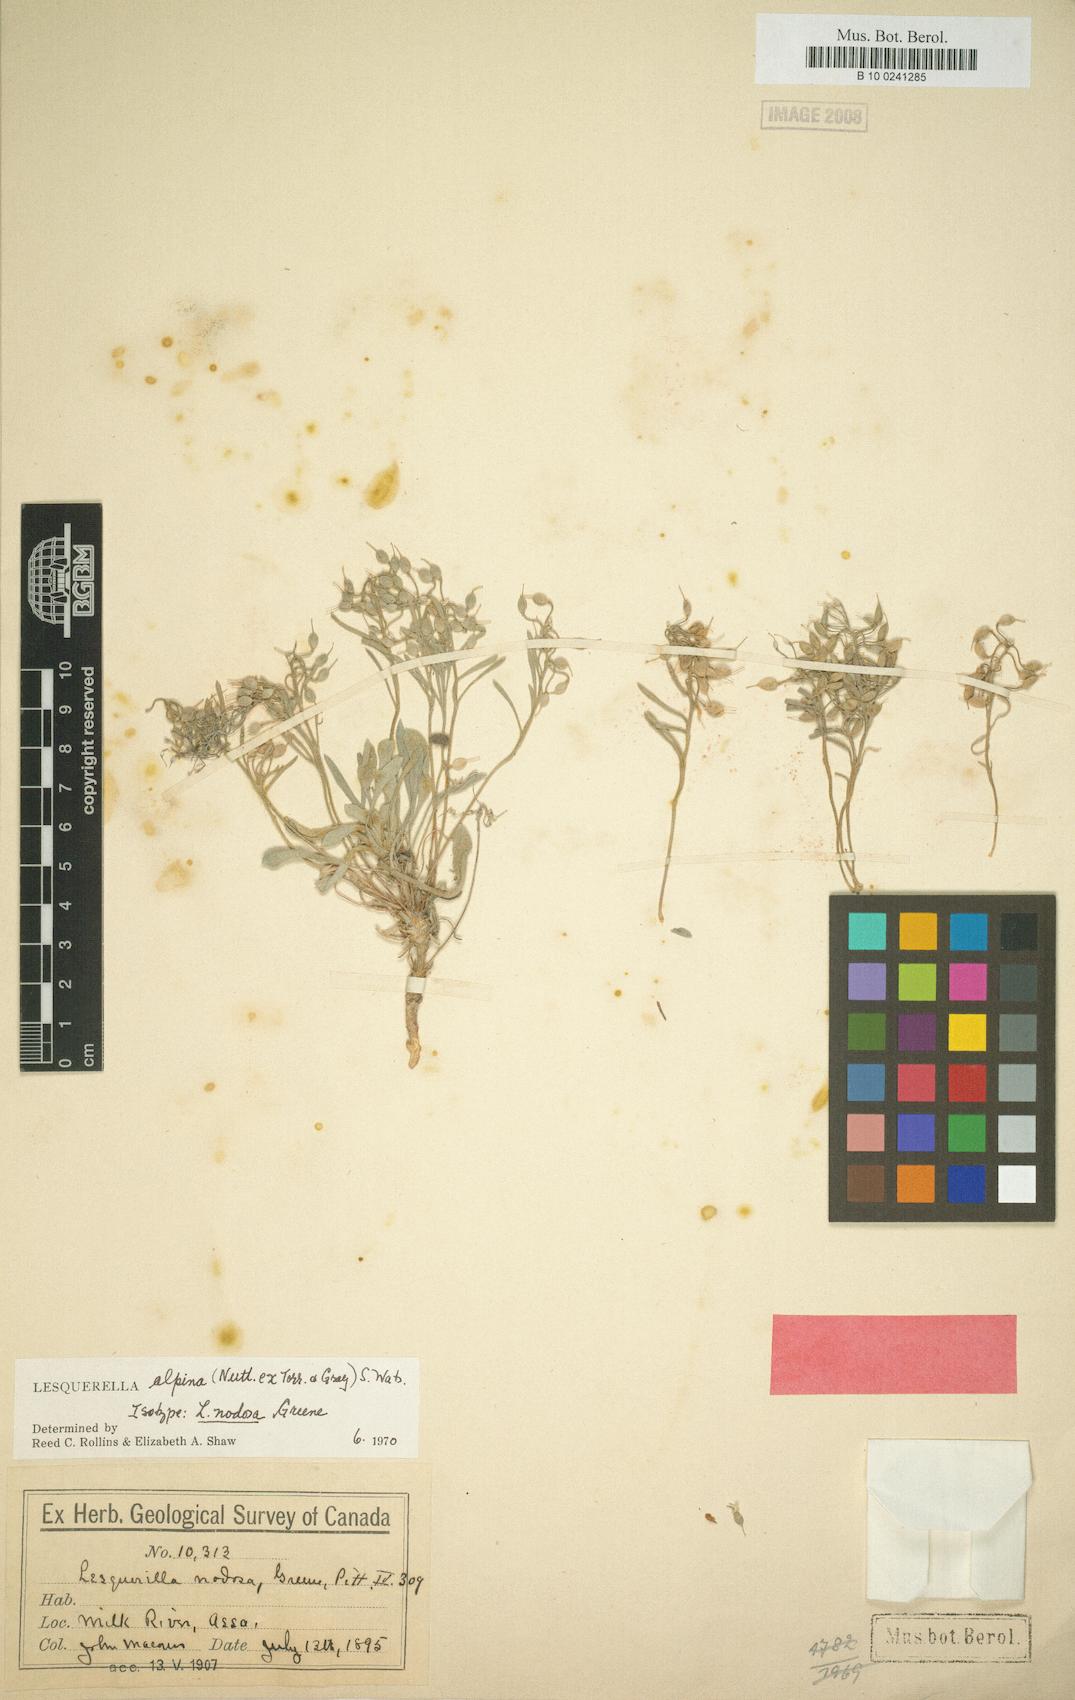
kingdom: Plantae
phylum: Tracheophyta
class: Magnoliopsida
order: Brassicales
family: Brassicaceae
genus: Physaria
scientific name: Physaria spatulata
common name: Alpine bladderpod
